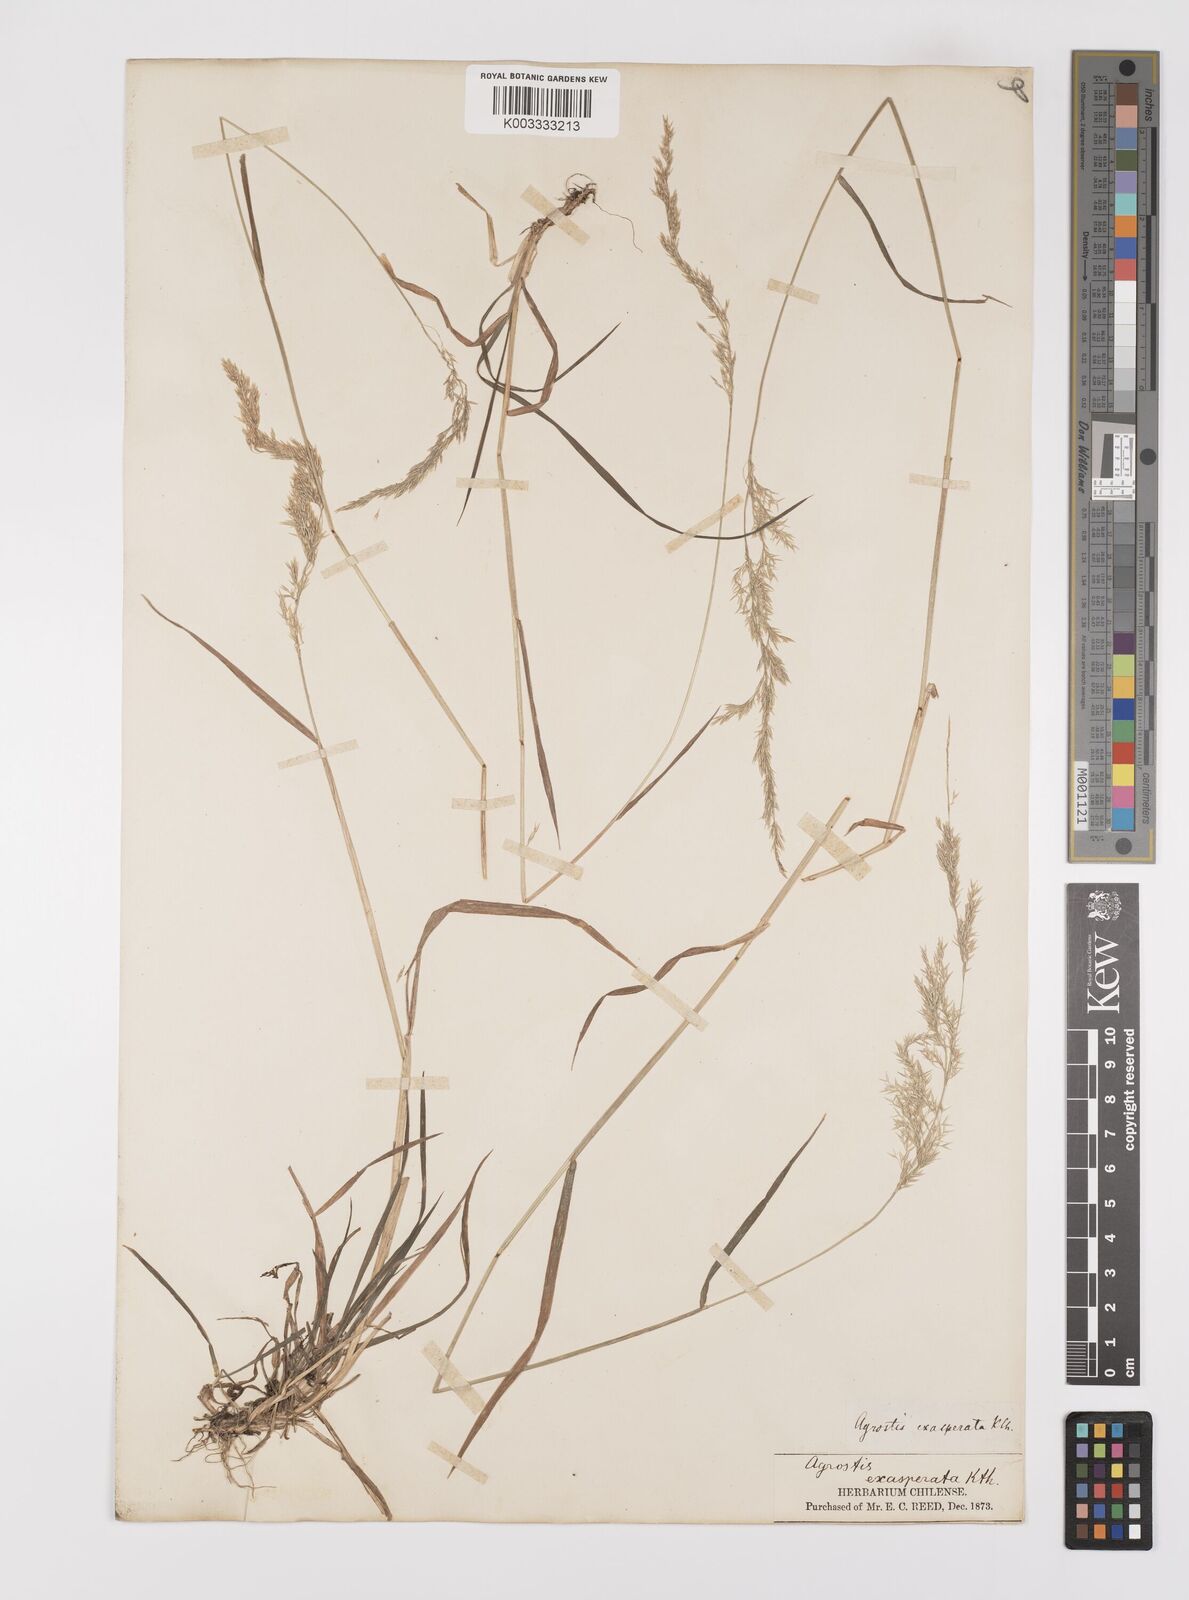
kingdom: Plantae
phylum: Tracheophyta
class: Liliopsida
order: Poales
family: Poaceae
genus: Polypogon
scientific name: Polypogon exasperatus
